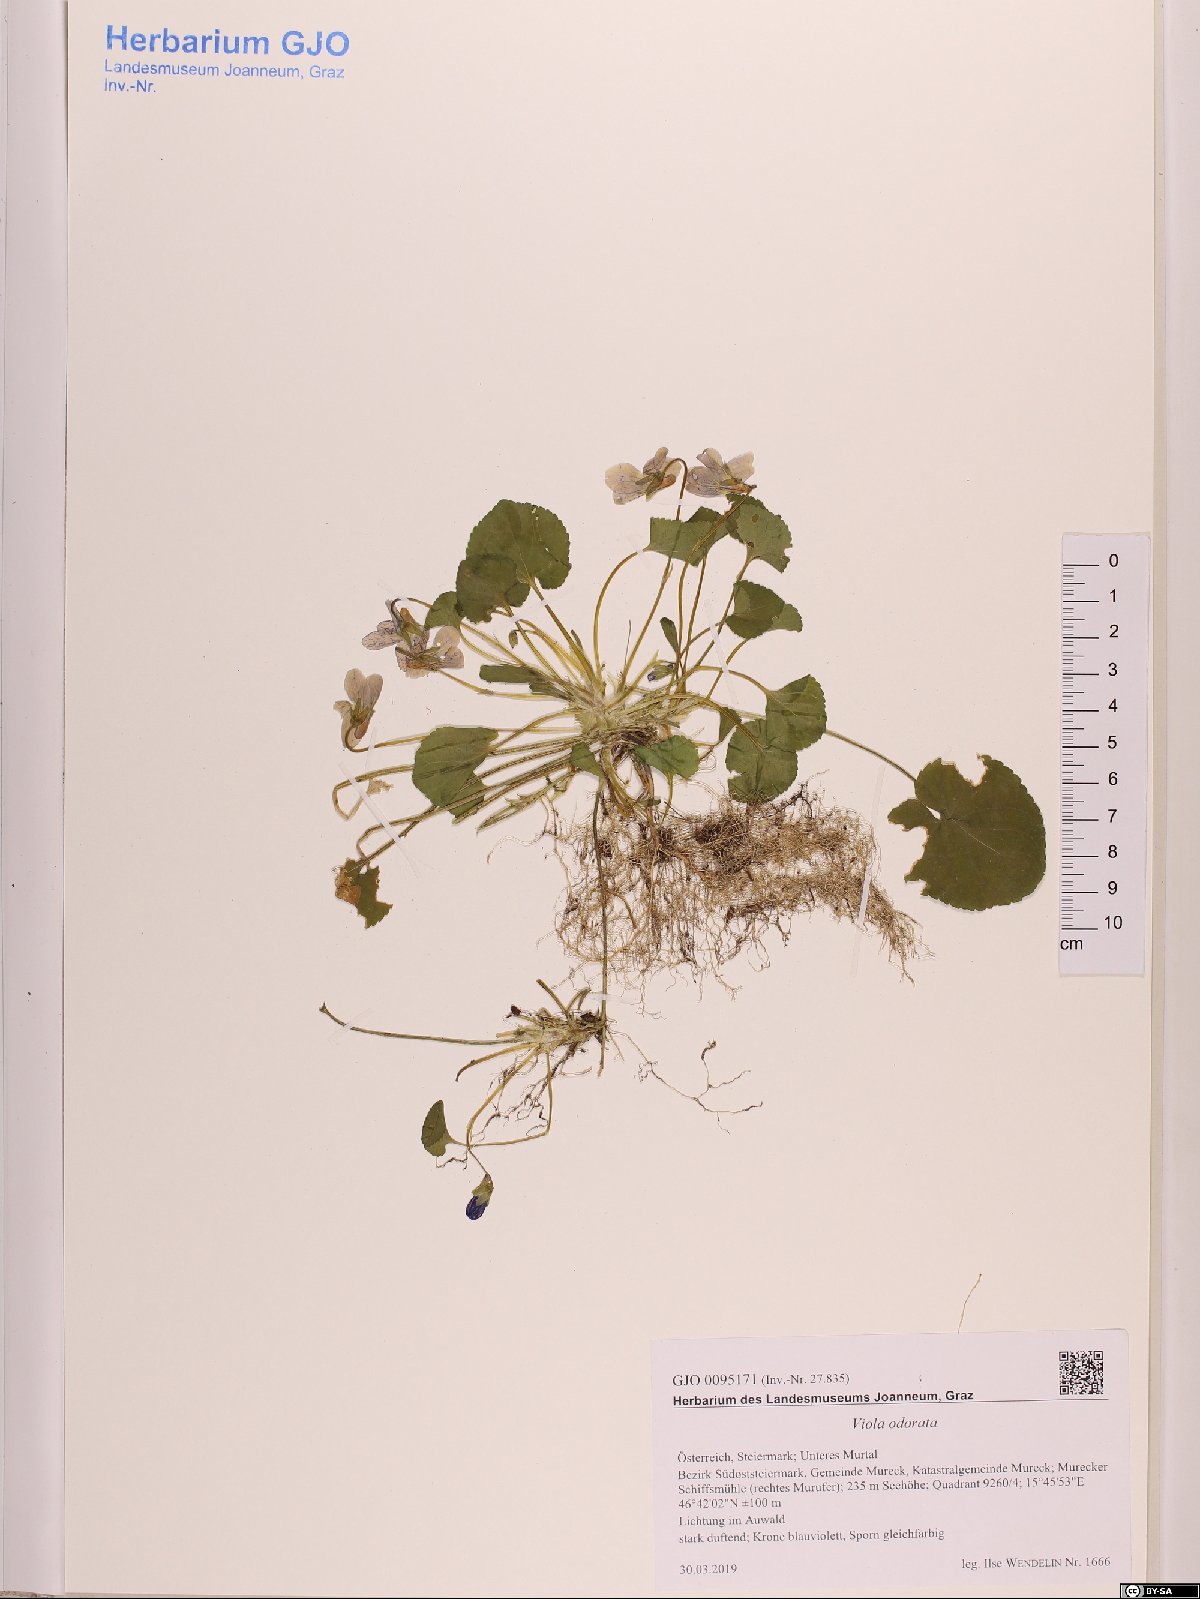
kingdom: Plantae
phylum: Tracheophyta
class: Magnoliopsida
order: Malpighiales
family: Violaceae
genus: Viola
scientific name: Viola odorata
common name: Sweet violet
